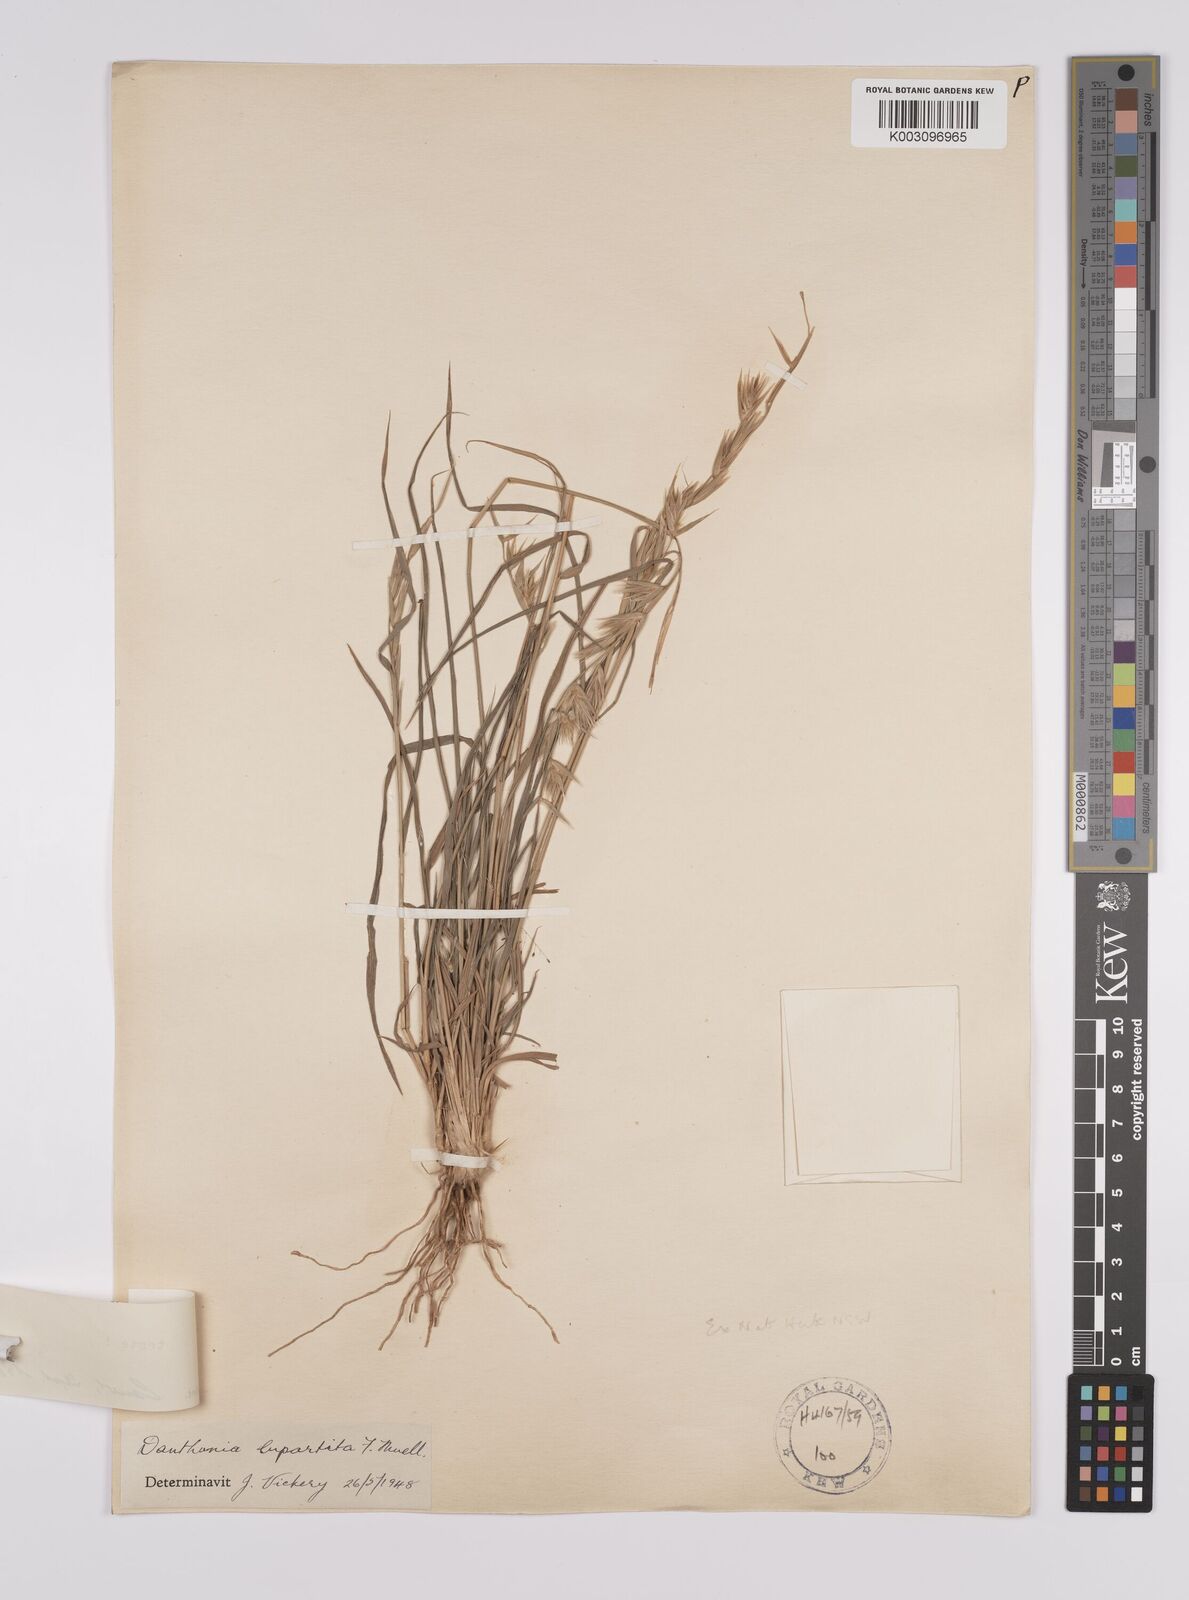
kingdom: Plantae
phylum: Tracheophyta
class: Liliopsida
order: Poales
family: Poaceae
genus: Monachather
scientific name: Monachather paradoxus
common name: Bandicoot grass
